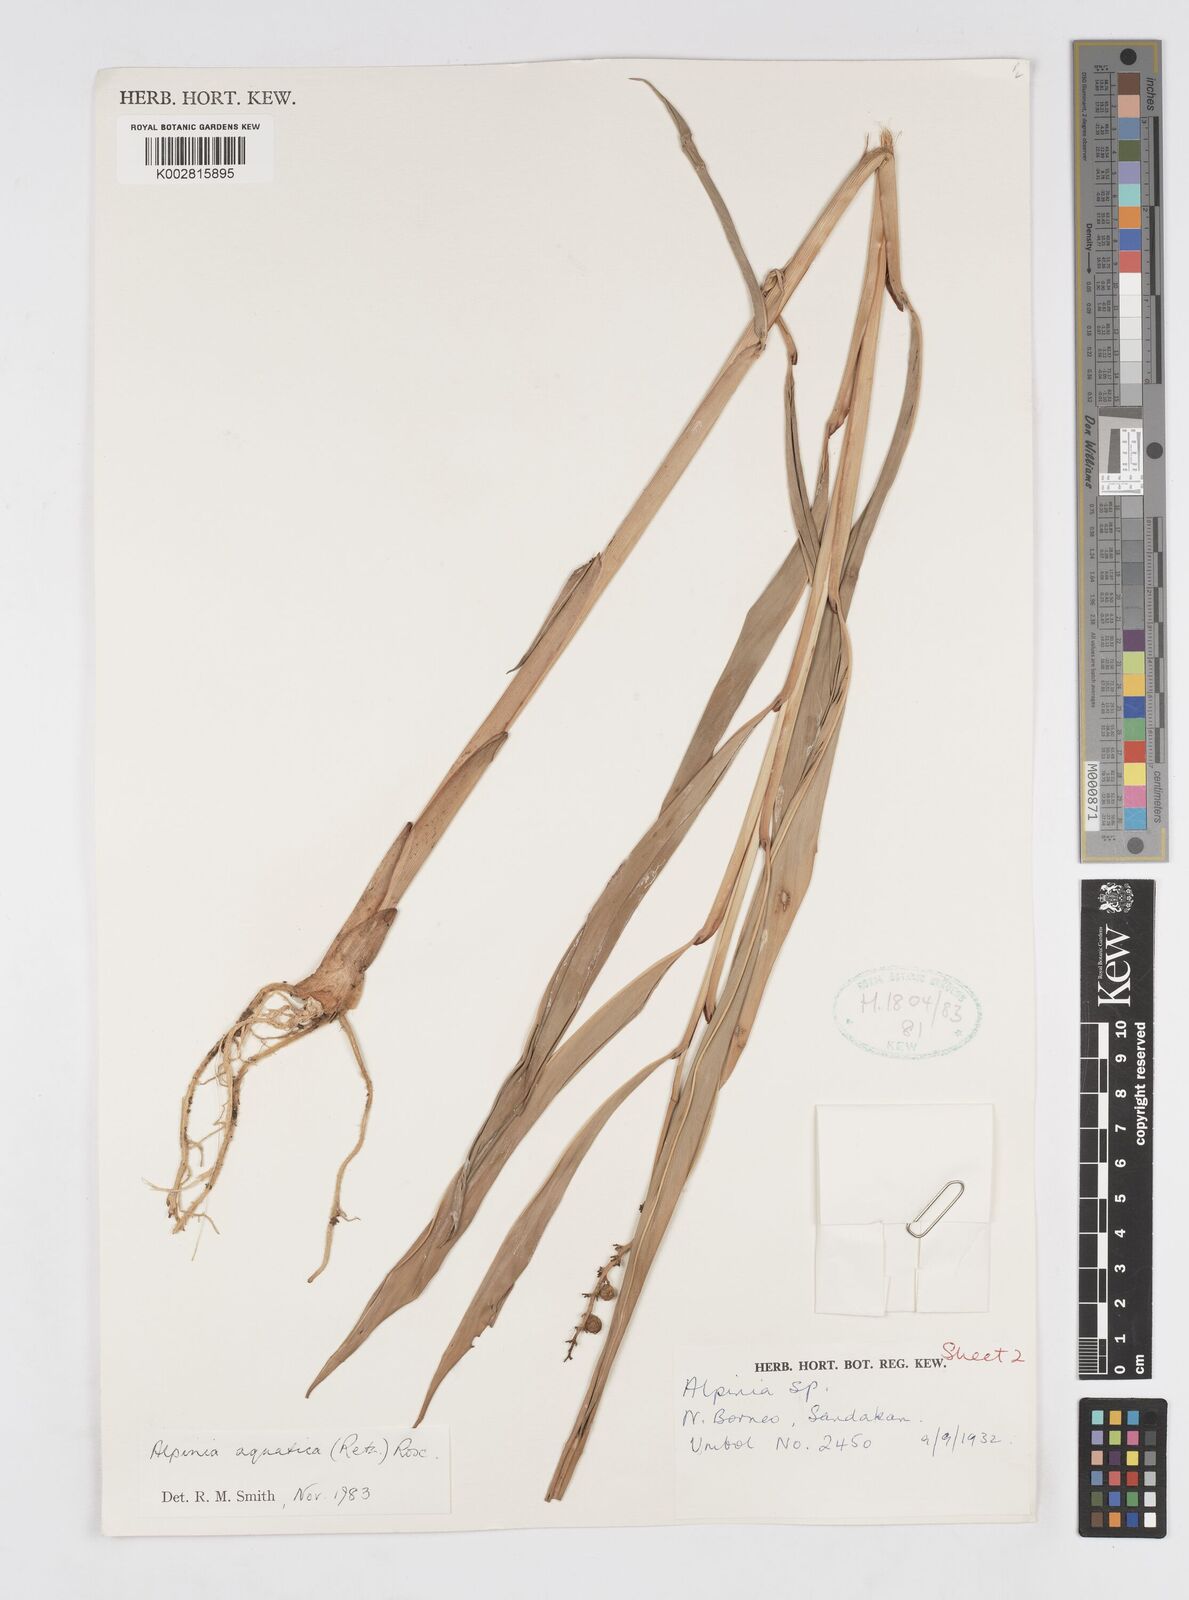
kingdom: Plantae
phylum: Tracheophyta
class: Liliopsida
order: Zingiberales
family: Zingiberaceae
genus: Alpinia
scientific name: Alpinia aquatica
